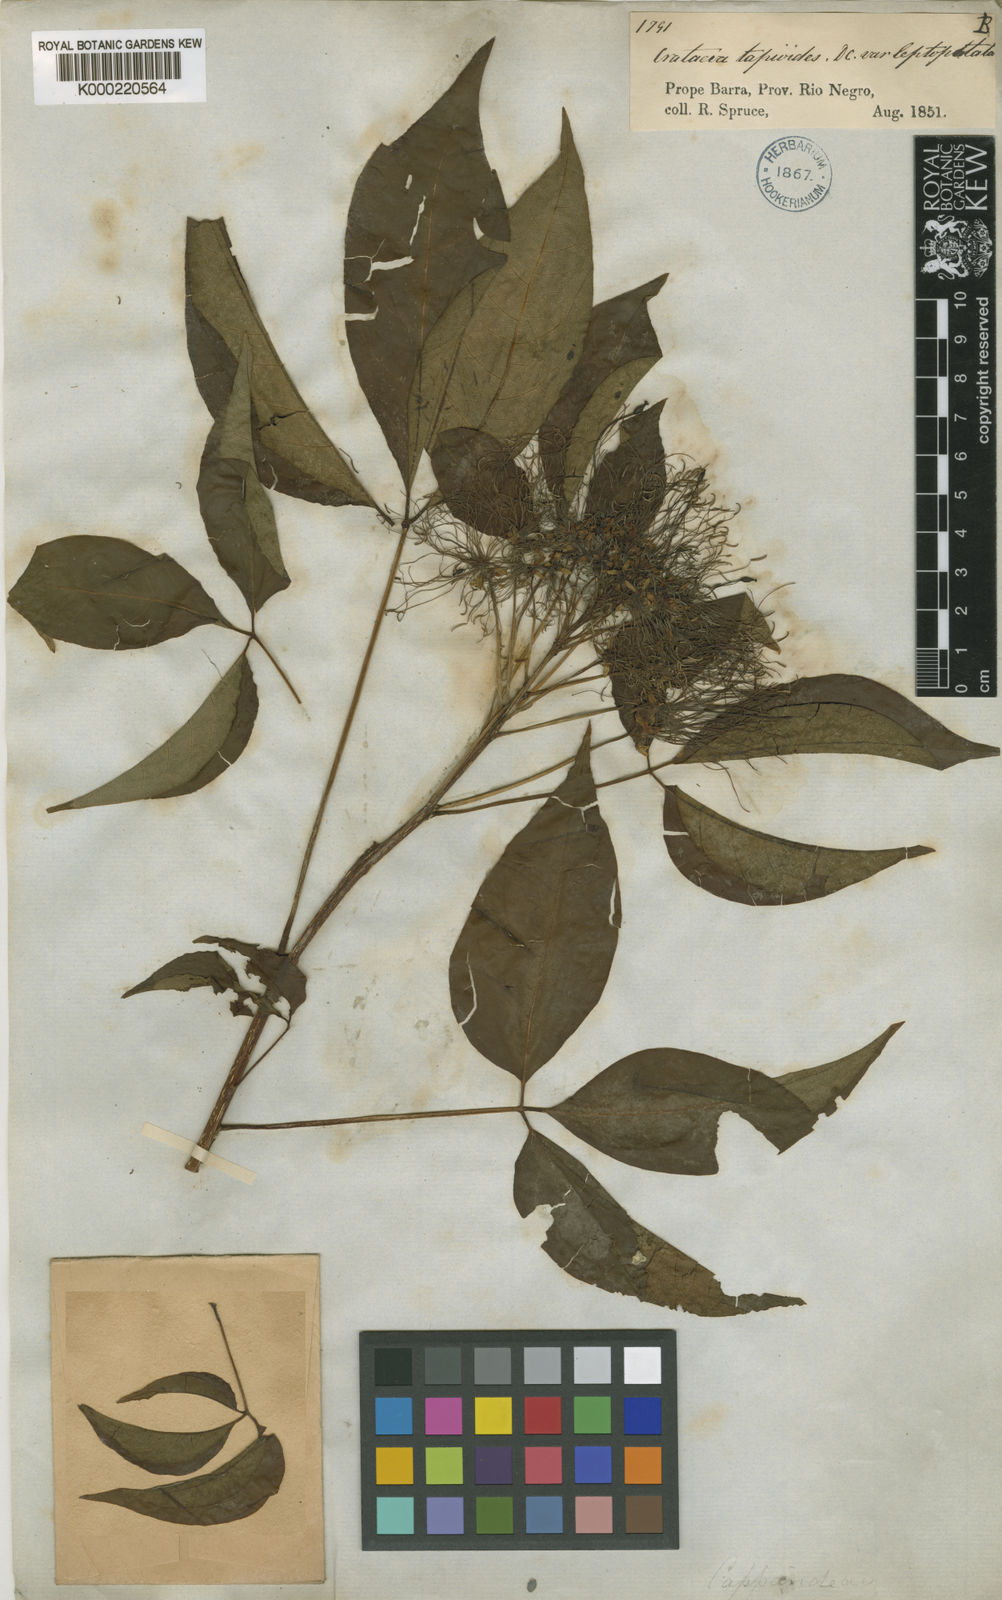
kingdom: Plantae
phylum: Tracheophyta
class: Magnoliopsida
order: Brassicales
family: Capparaceae
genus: Crateva
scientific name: Crateva tapia
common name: Garlic-pear
